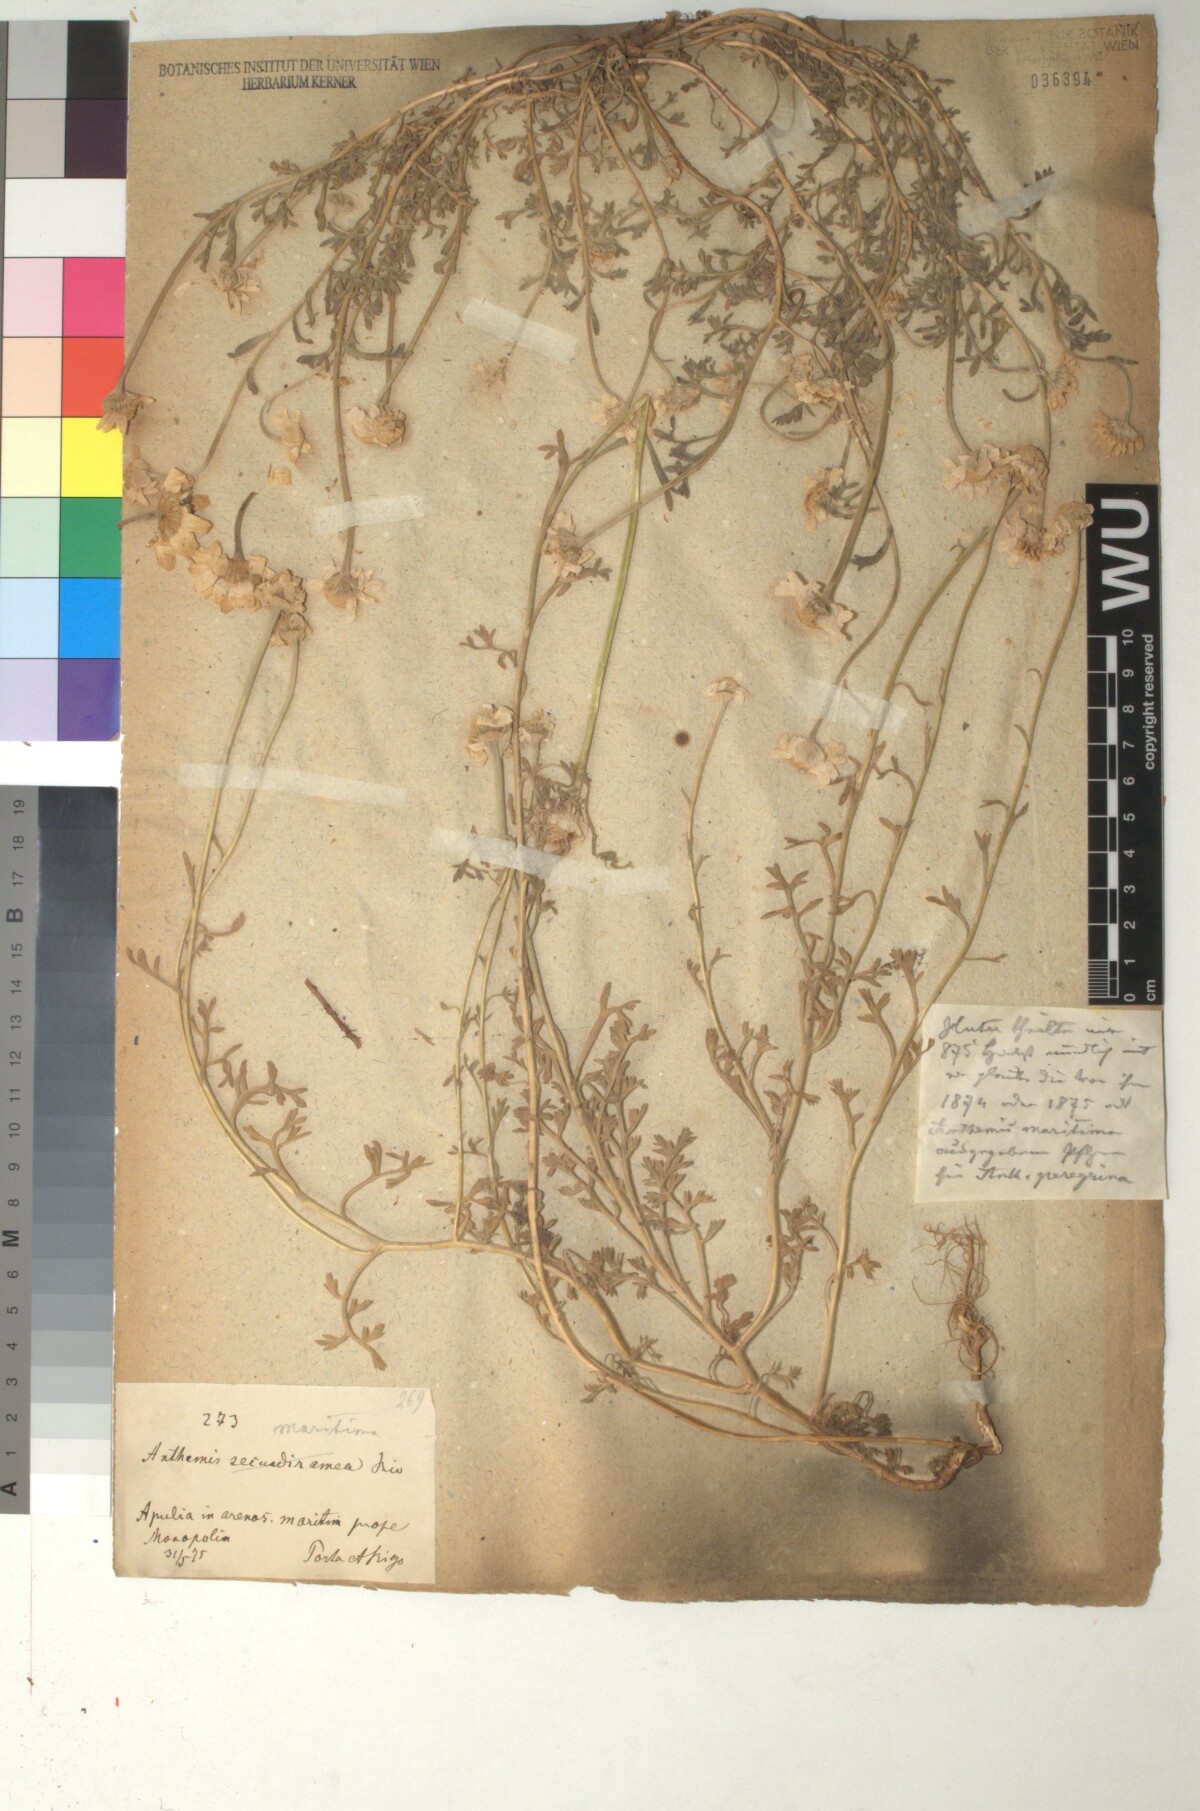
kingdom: Plantae
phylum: Tracheophyta
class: Magnoliopsida
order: Asterales
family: Asteraceae
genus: Anthemis
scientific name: Anthemis maritima
